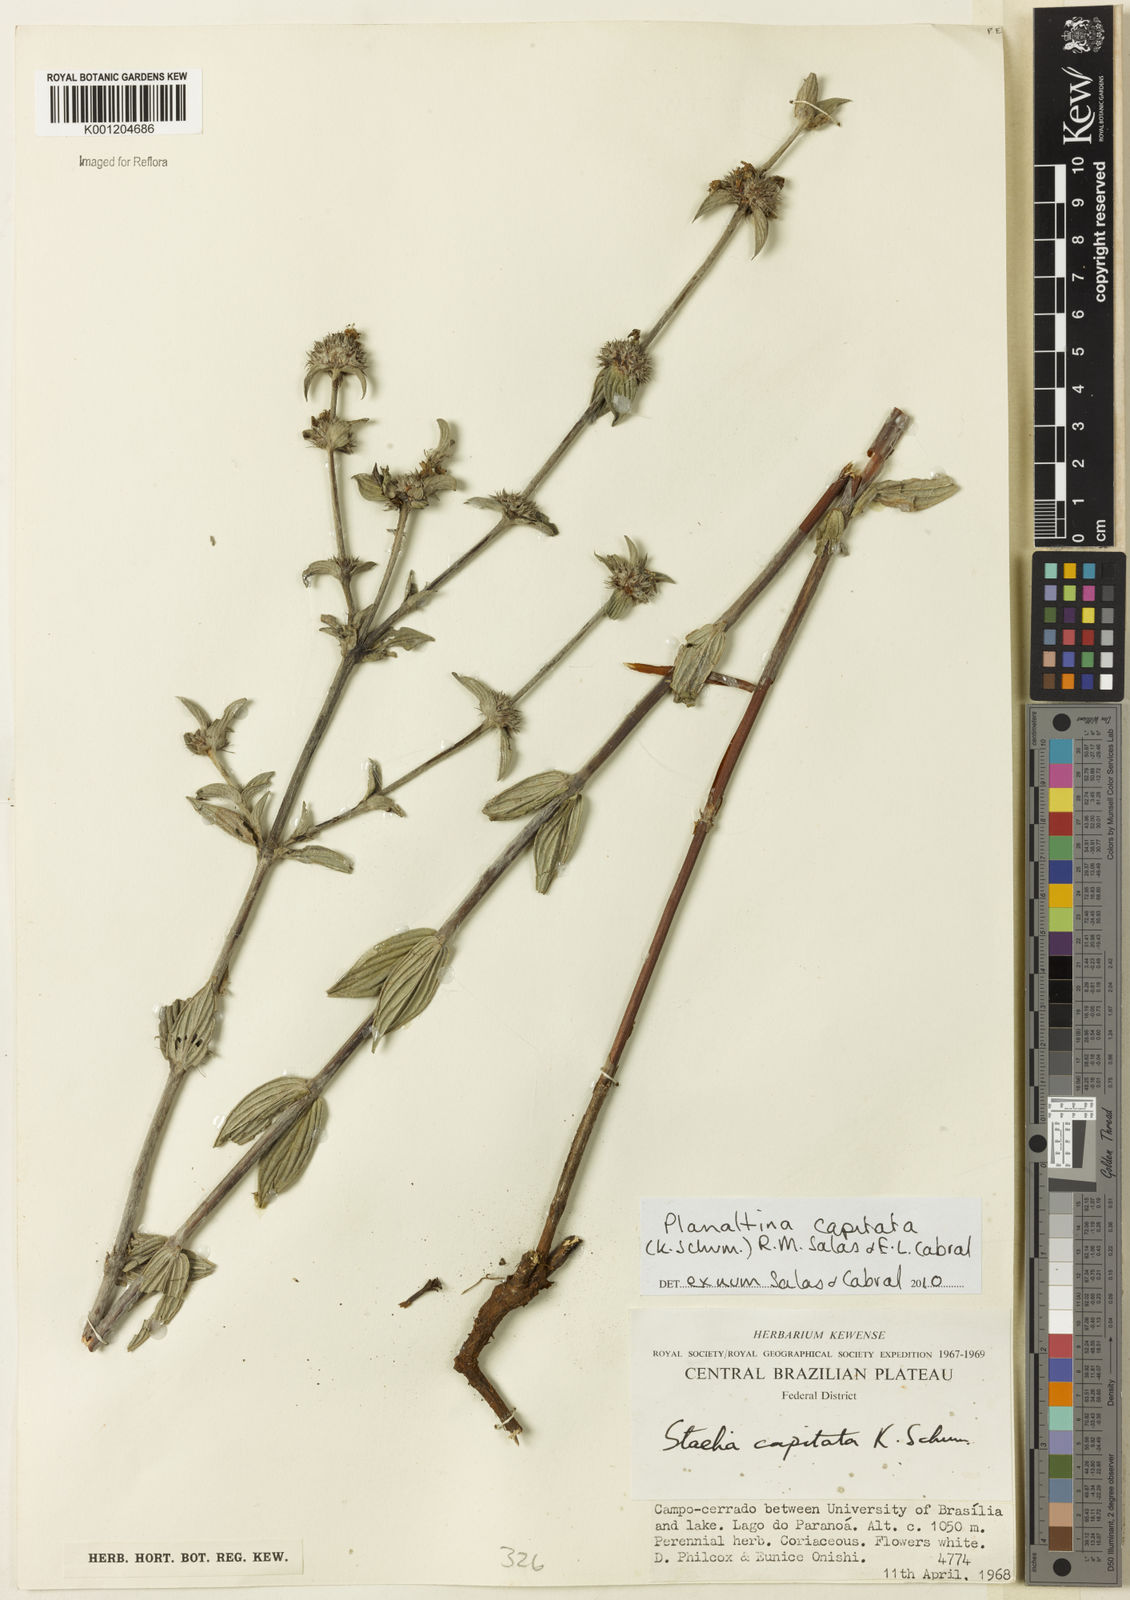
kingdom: Plantae
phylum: Tracheophyta
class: Magnoliopsida
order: Gentianales
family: Rubiaceae
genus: Planaltina
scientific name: Planaltina capitata
